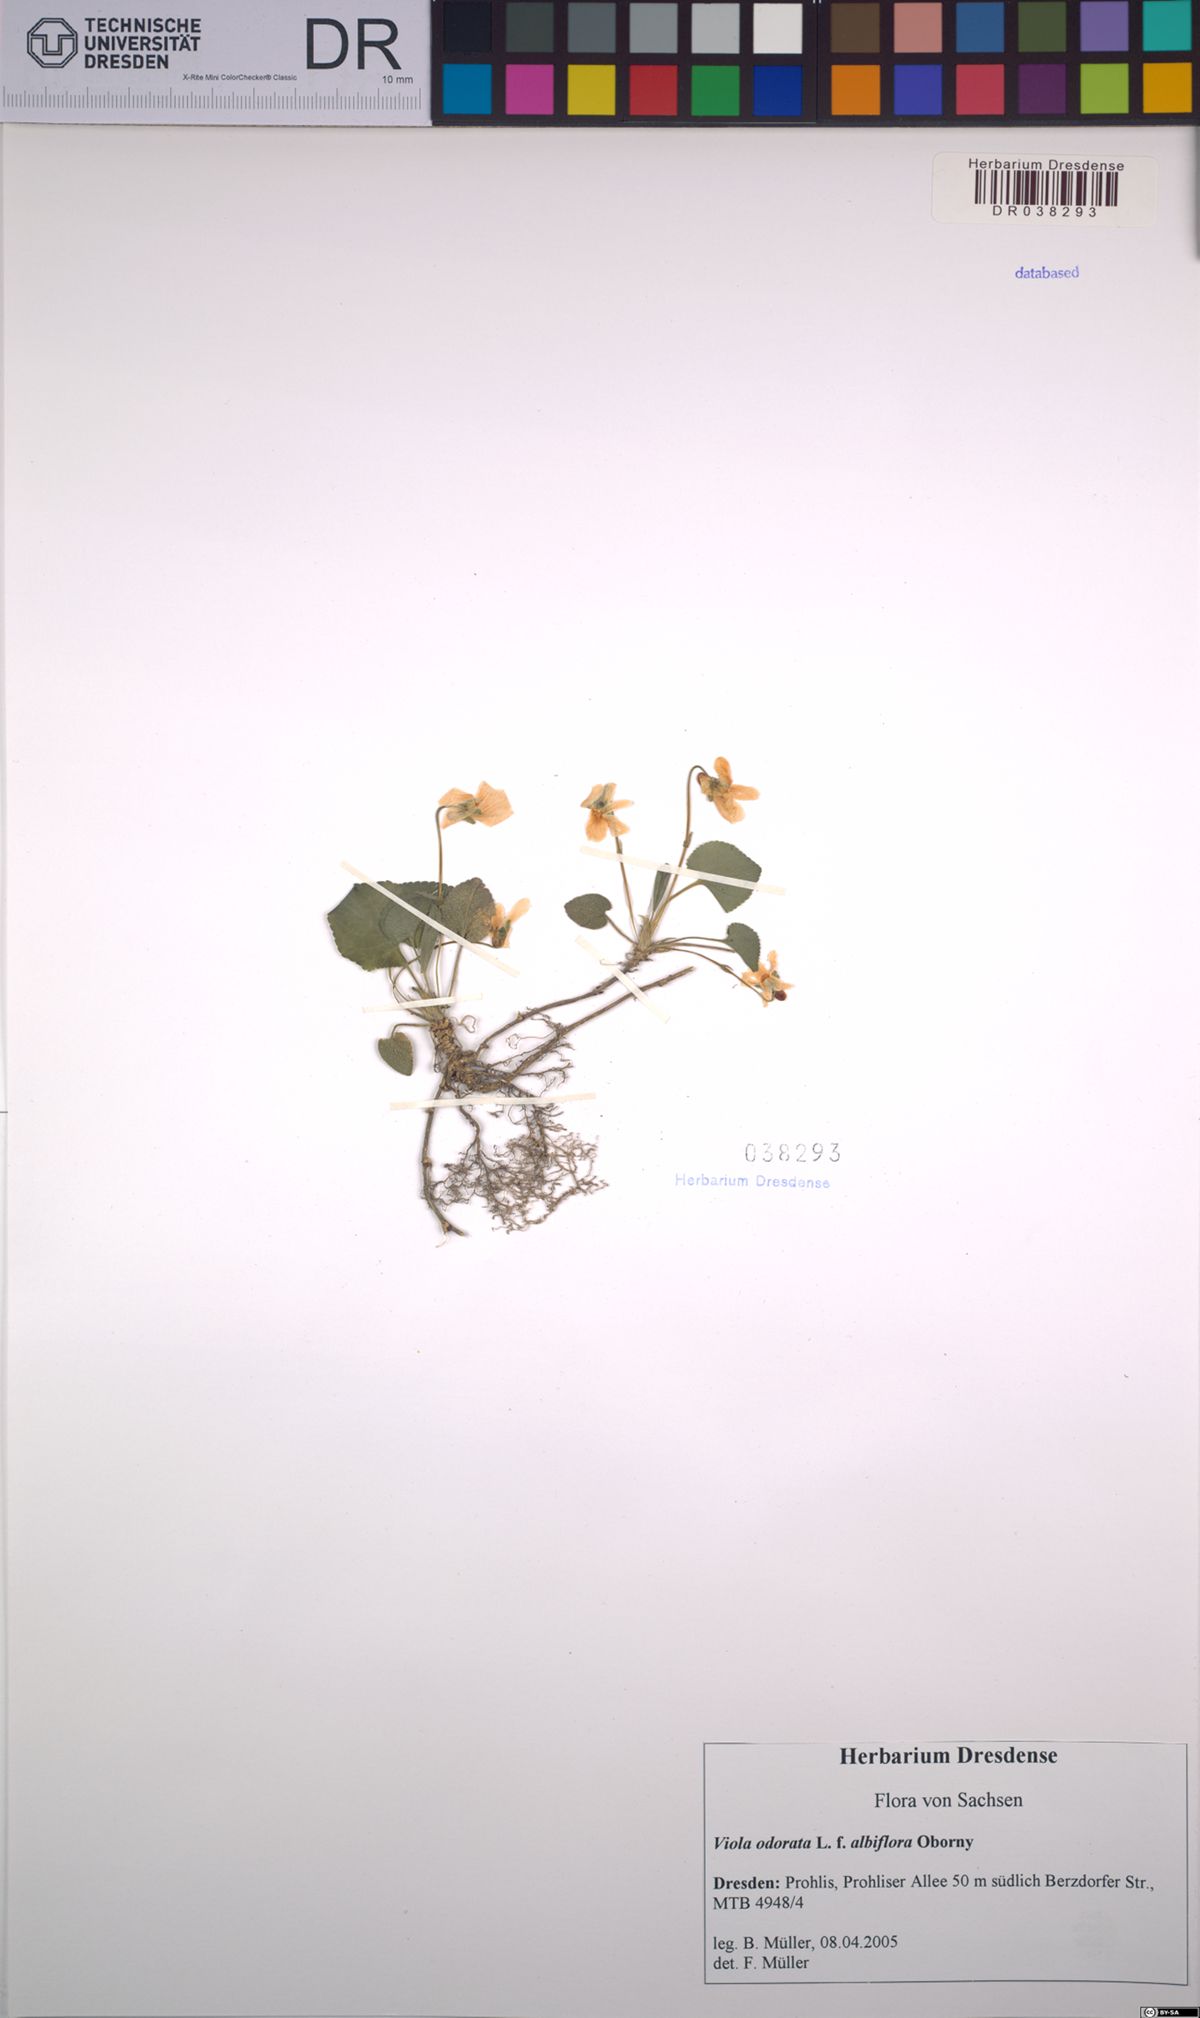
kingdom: Plantae
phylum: Tracheophyta
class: Magnoliopsida
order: Malpighiales
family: Violaceae
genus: Viola
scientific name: Viola odorata
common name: Sweet violet
